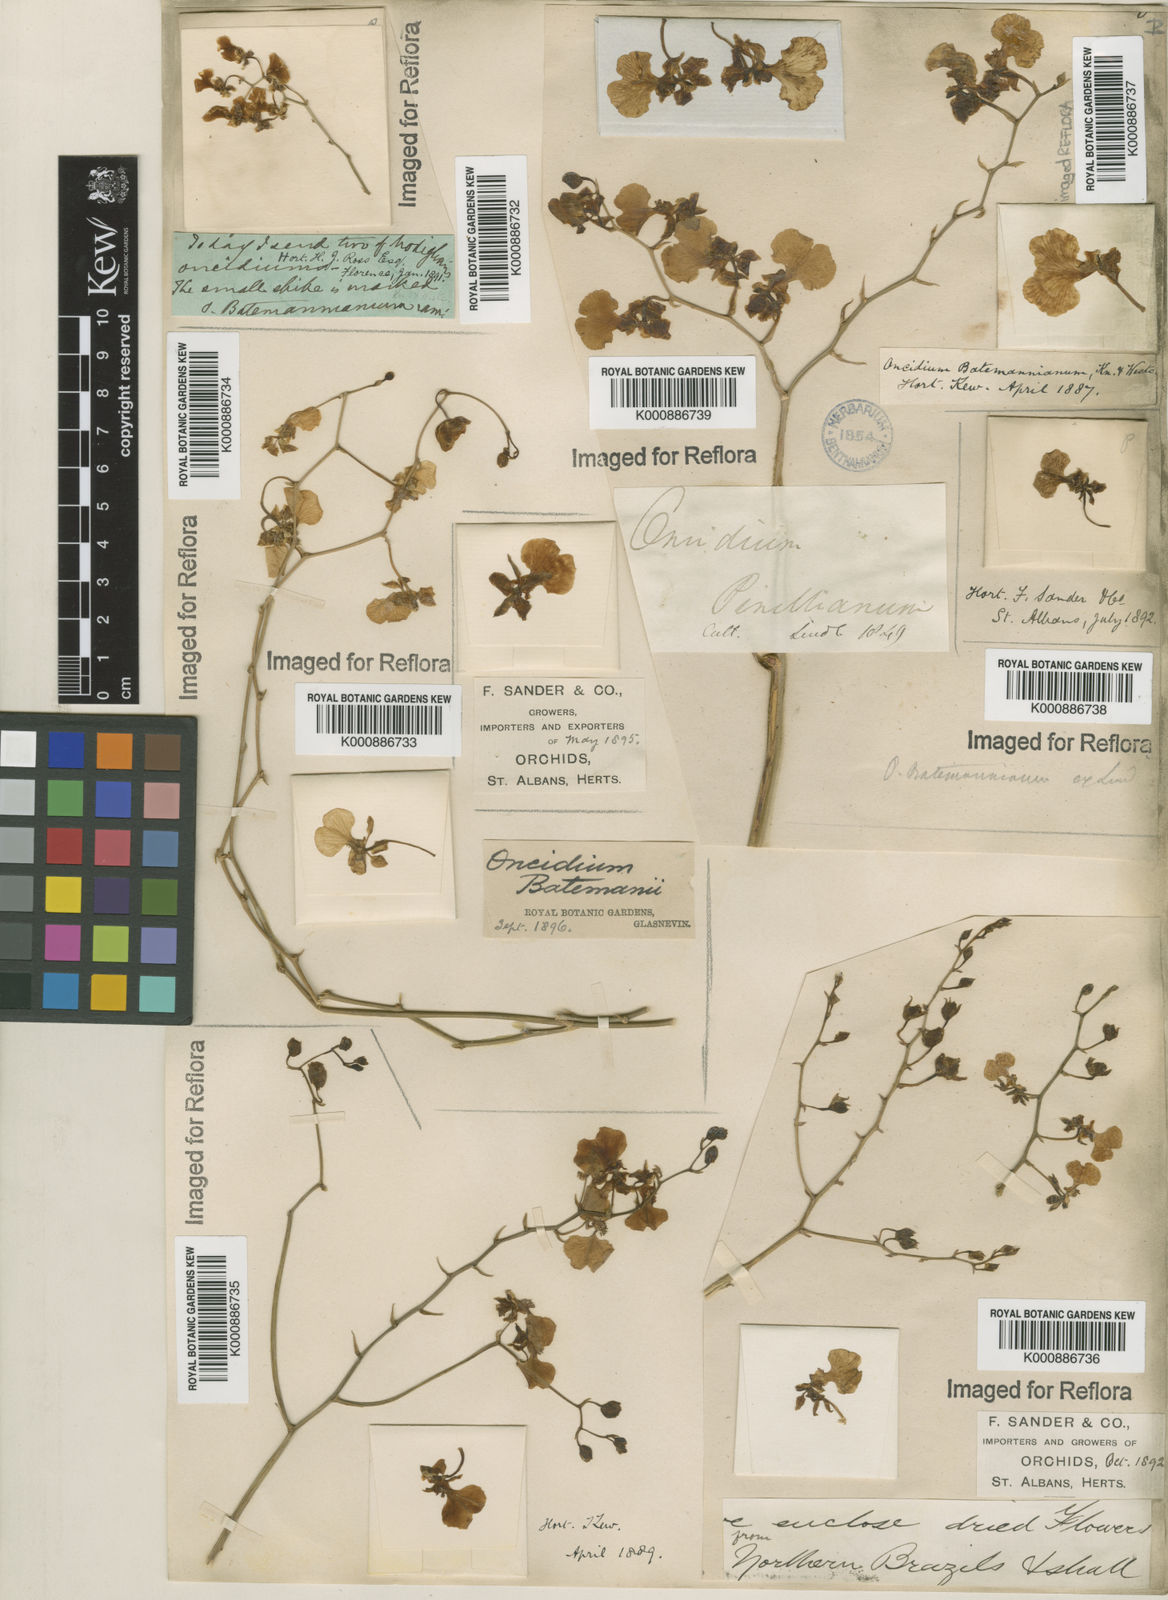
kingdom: Plantae
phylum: Tracheophyta
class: Liliopsida
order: Asparagales
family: Orchidaceae
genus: Gomesa
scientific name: Gomesa ramosa
